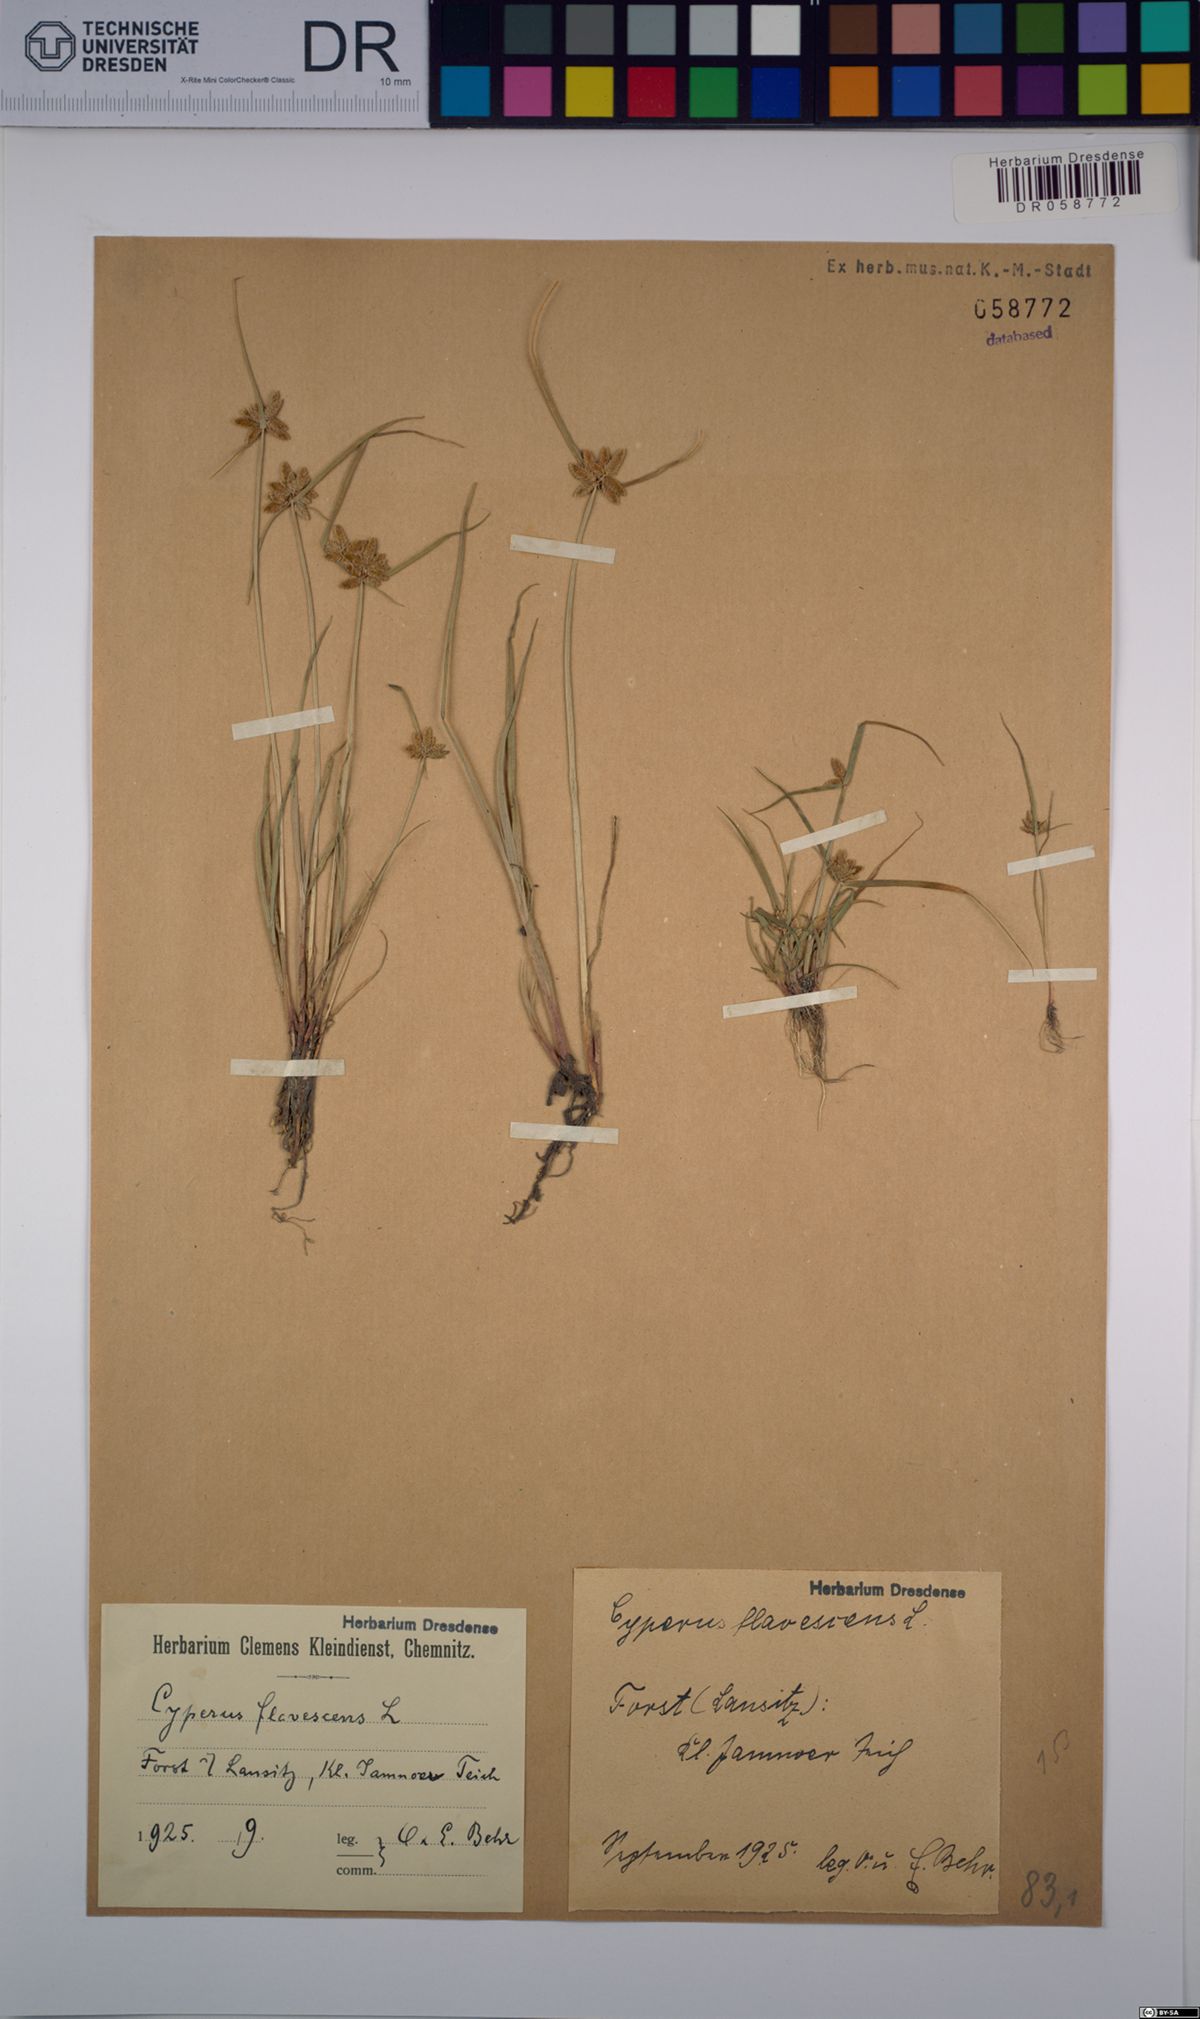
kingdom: Plantae
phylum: Tracheophyta
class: Liliopsida
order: Poales
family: Cyperaceae
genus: Cyperus
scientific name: Cyperus flavescens
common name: Yellow galingale
